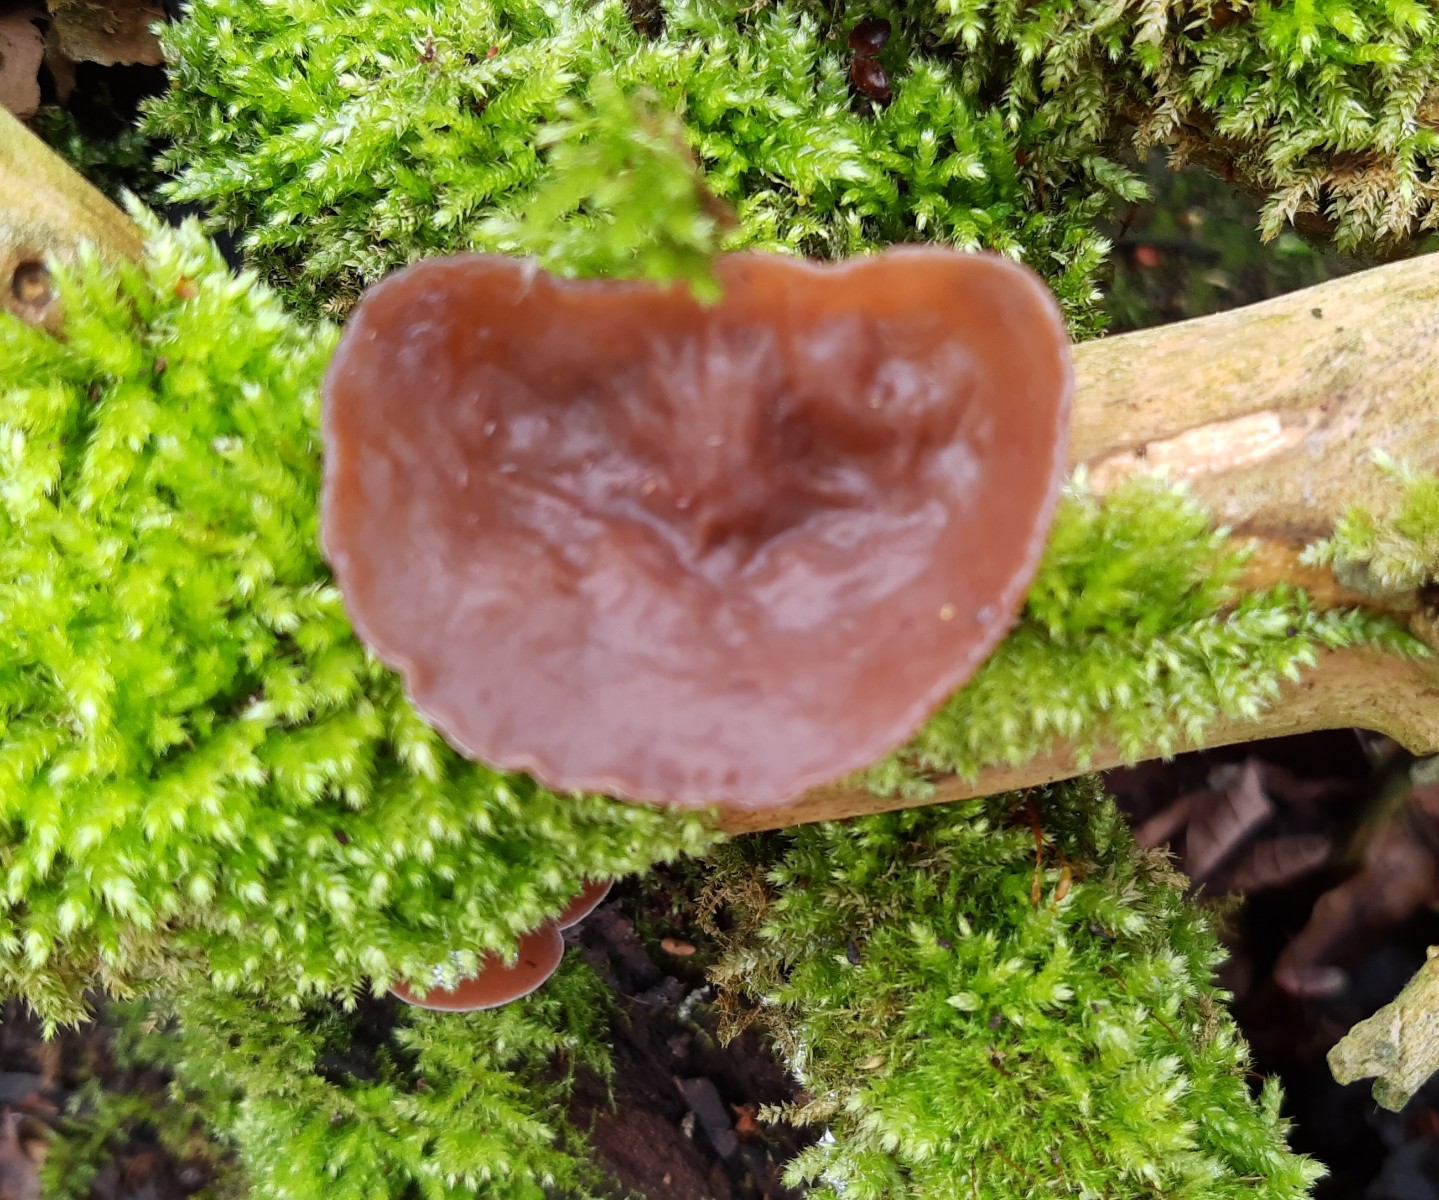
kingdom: Fungi
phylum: Basidiomycota
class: Agaricomycetes
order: Auriculariales
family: Auriculariaceae
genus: Auricularia
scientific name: Auricularia auricula-judae
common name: almindelig judasøre
